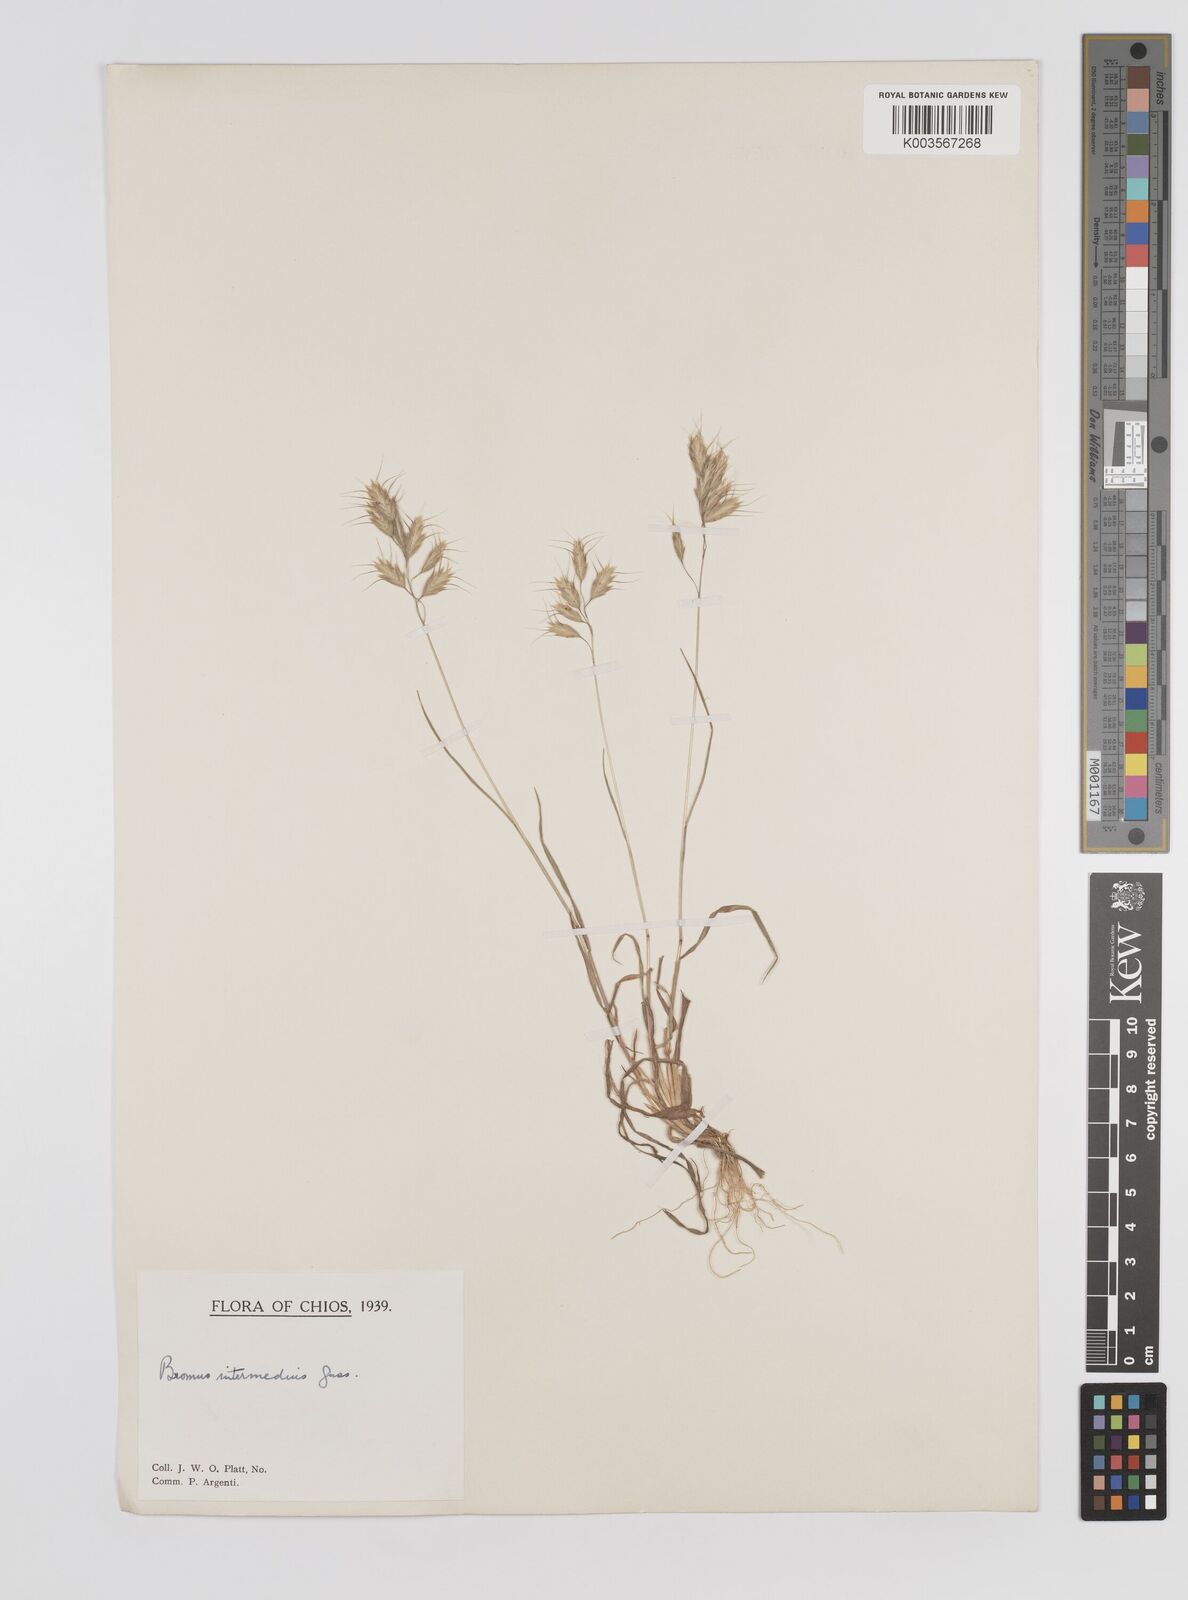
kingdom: Plantae
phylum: Tracheophyta
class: Liliopsida
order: Poales
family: Poaceae
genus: Bromus
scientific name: Bromus intermedius
